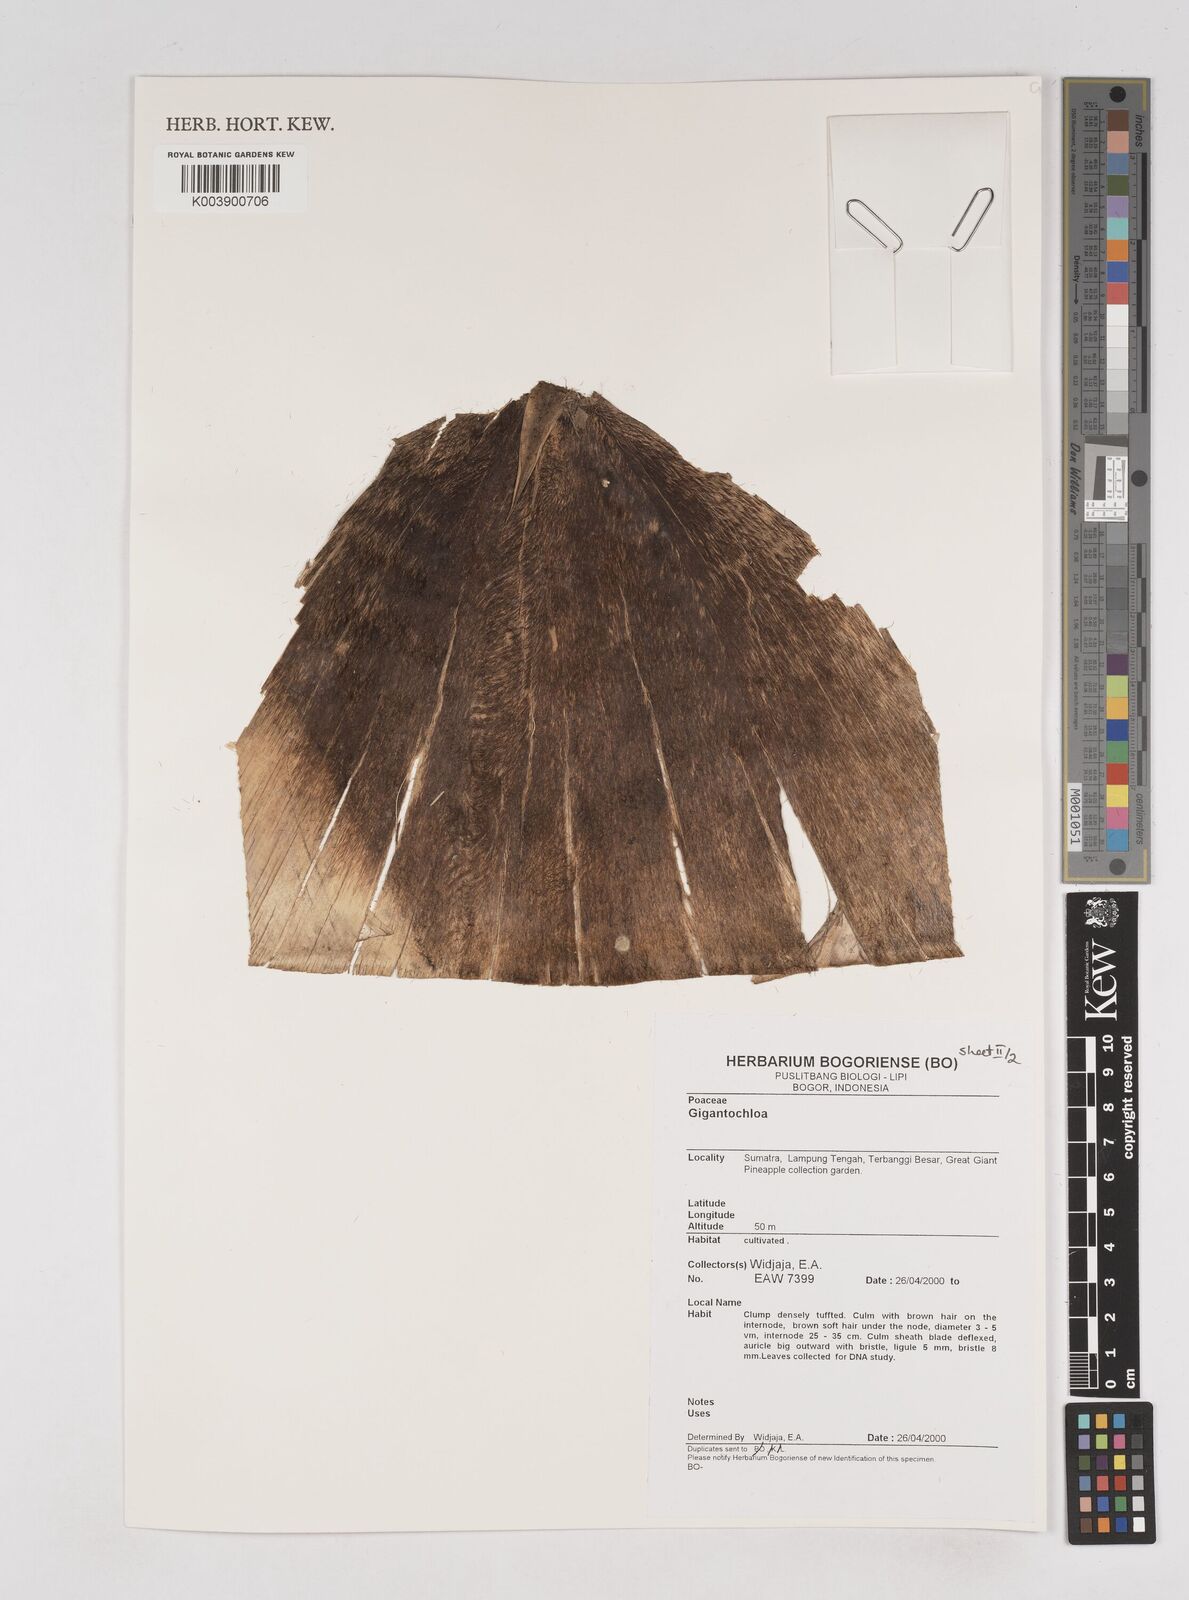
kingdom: Plantae
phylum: Tracheophyta
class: Liliopsida
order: Poales
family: Poaceae
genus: Gigantochloa
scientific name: Gigantochloa
